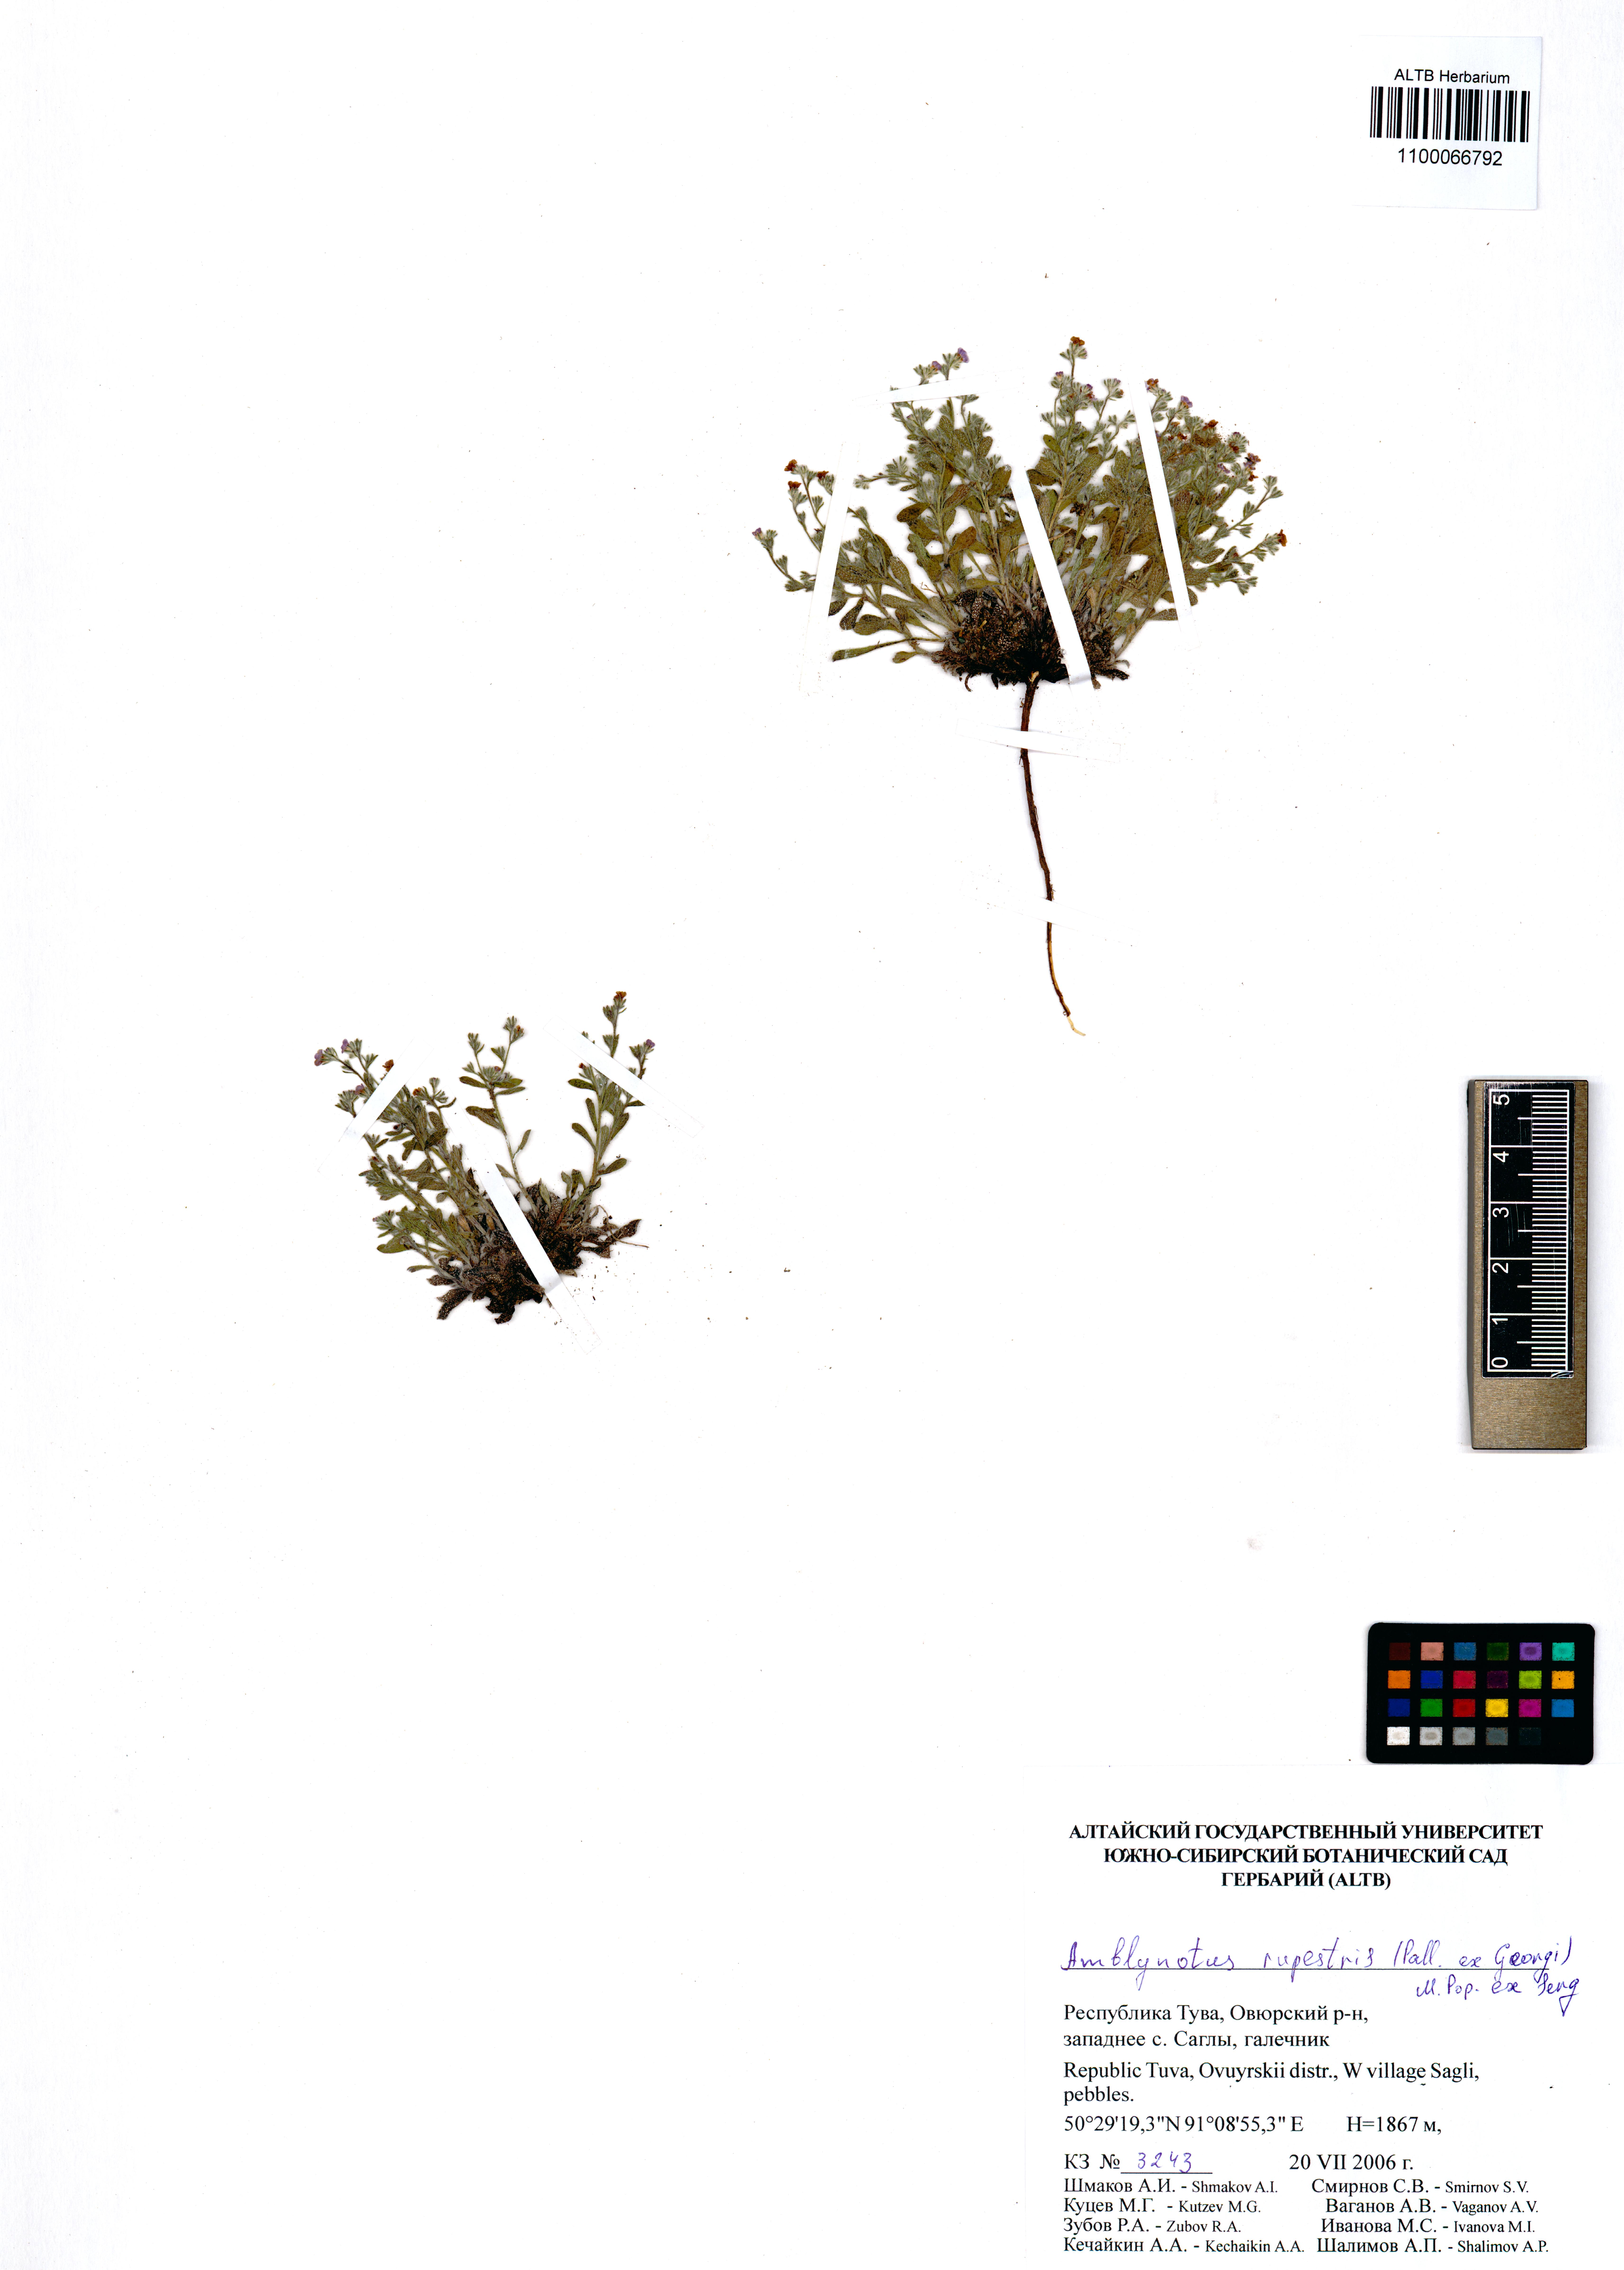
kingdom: Plantae
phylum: Tracheophyta
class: Magnoliopsida
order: Boraginales
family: Boraginaceae
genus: Eritrichium
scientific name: Eritrichium rupestre
